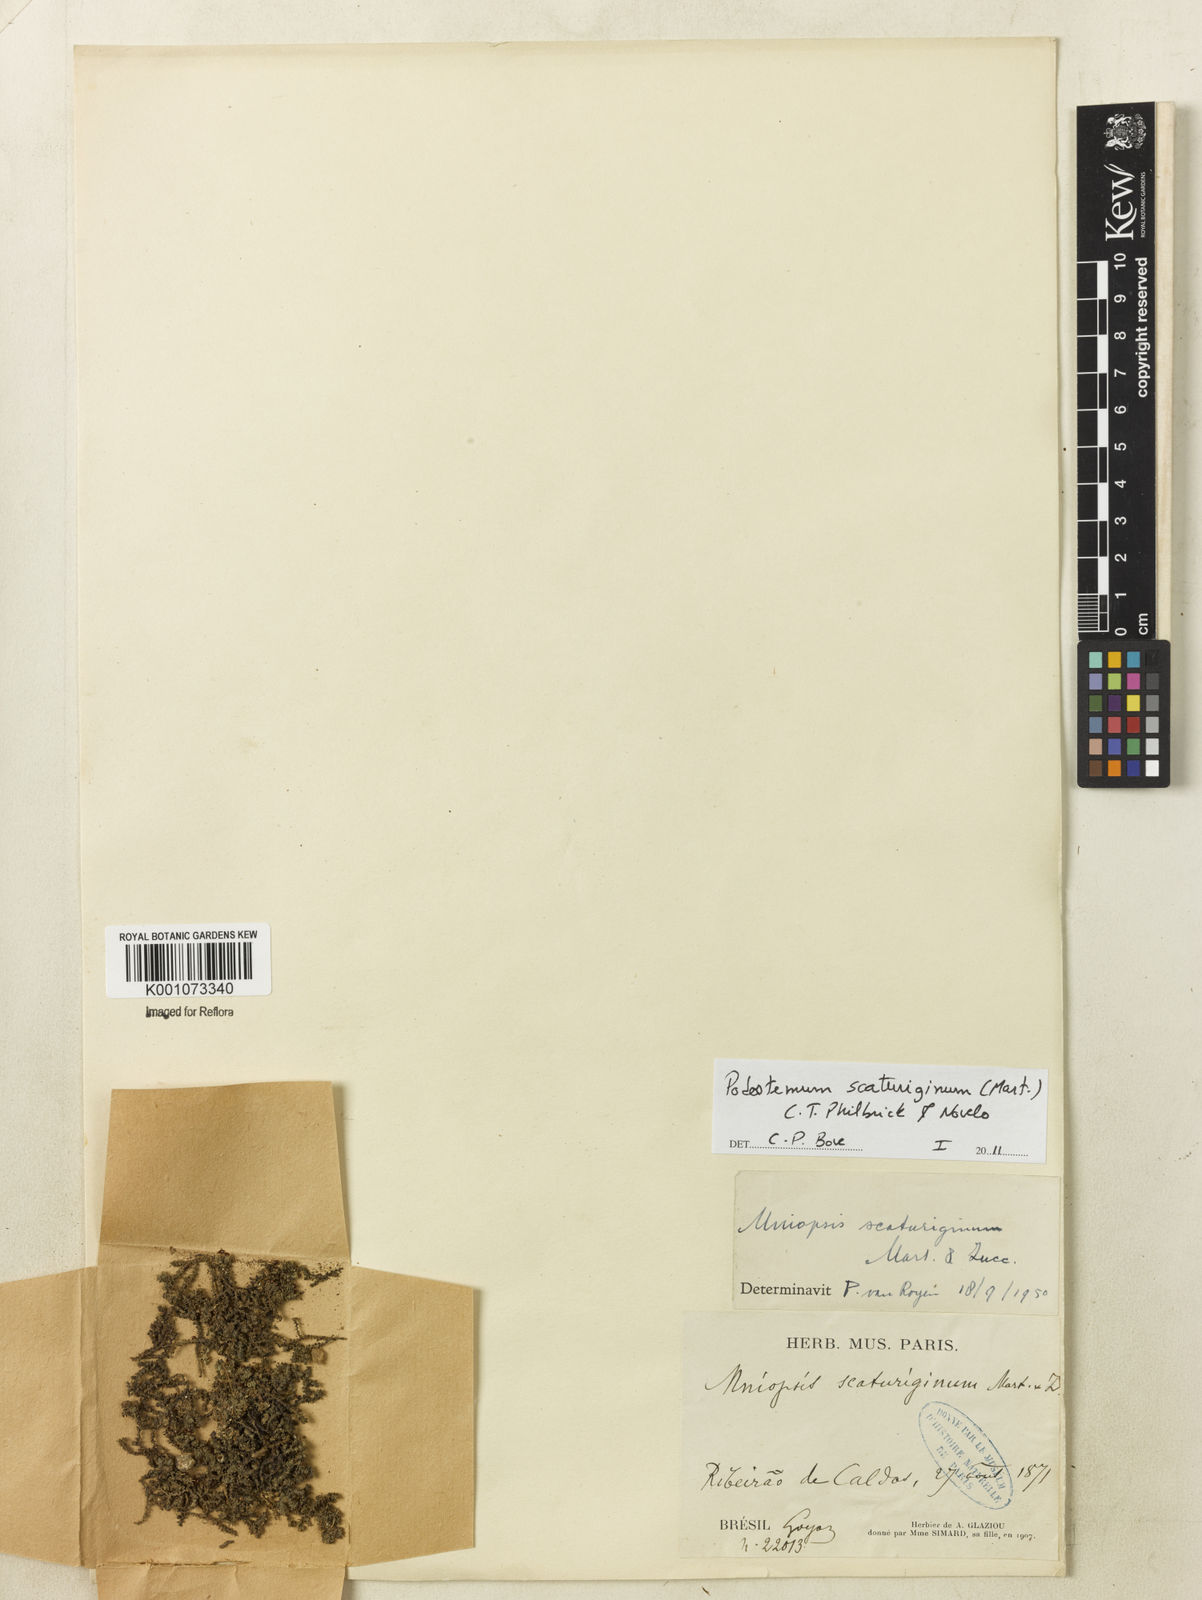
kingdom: Plantae
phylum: Tracheophyta
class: Magnoliopsida
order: Malpighiales
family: Podostemaceae
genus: Podostemum
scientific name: Podostemum scaturiginum
